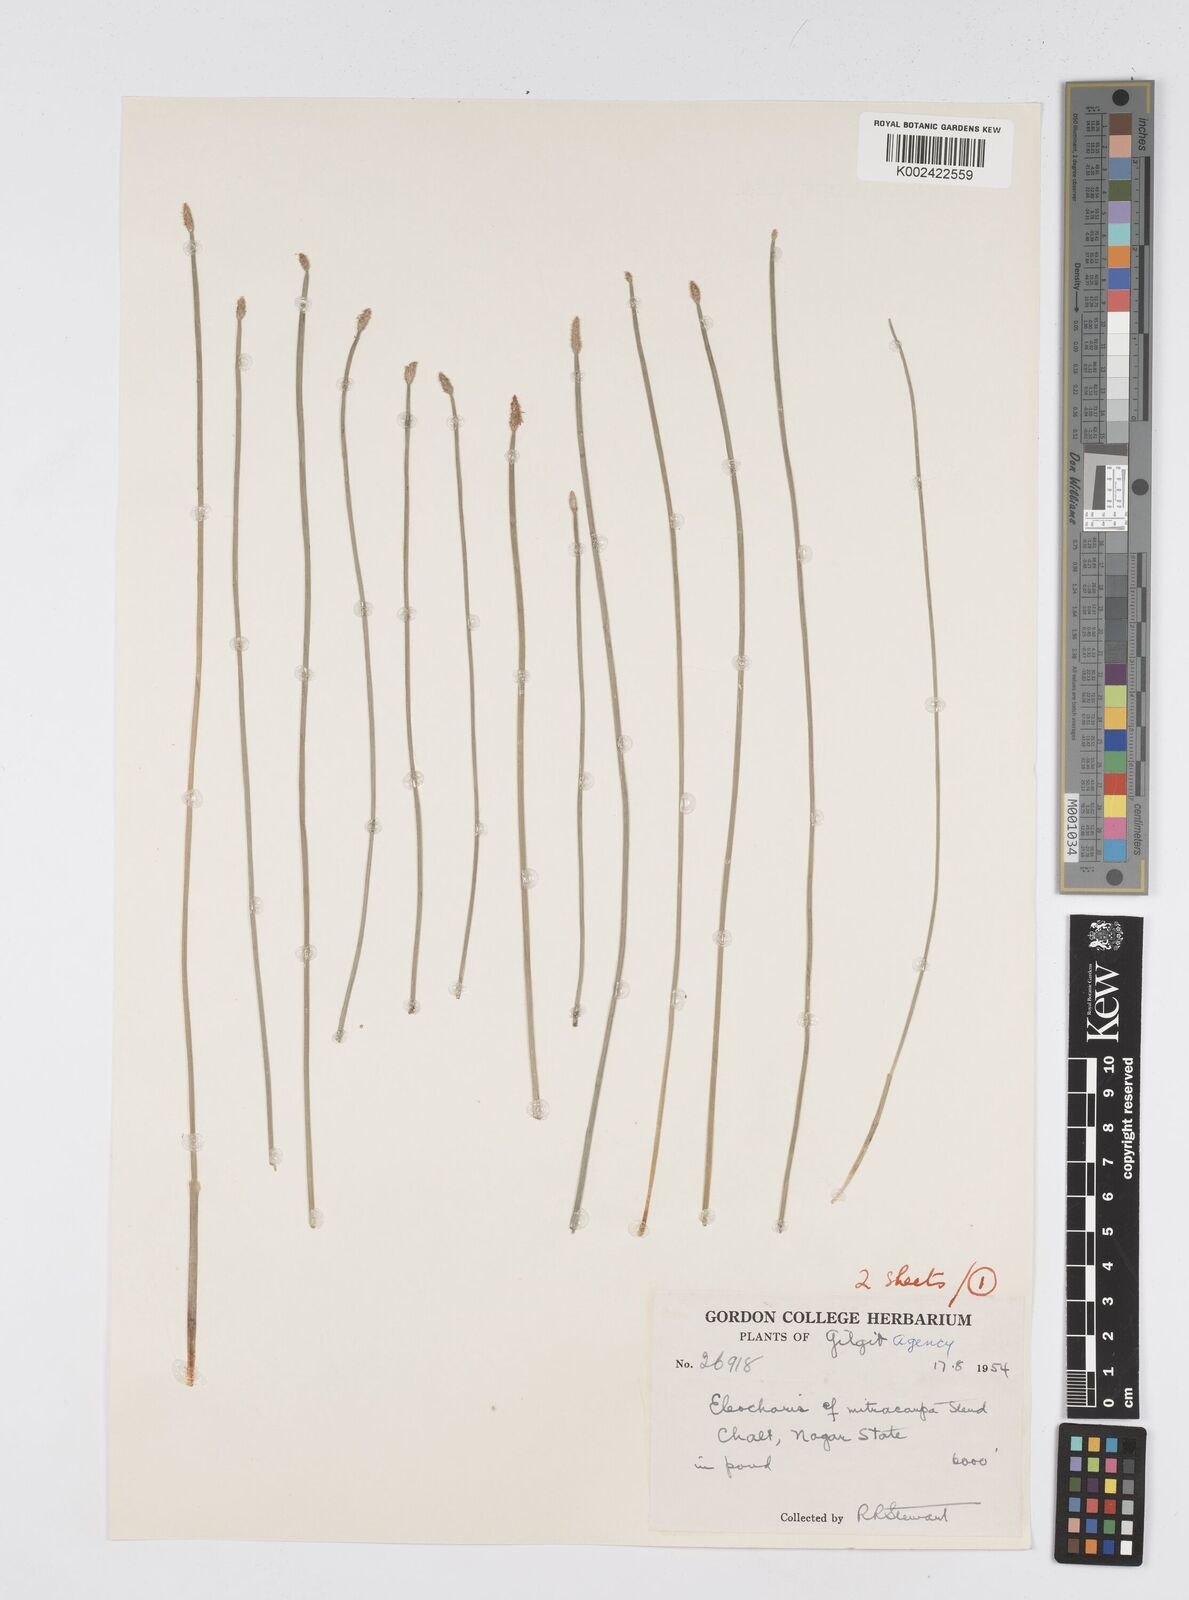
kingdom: Plantae
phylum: Tracheophyta
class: Liliopsida
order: Poales
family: Cyperaceae
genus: Eleocharis
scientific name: Eleocharis mitracarpa
